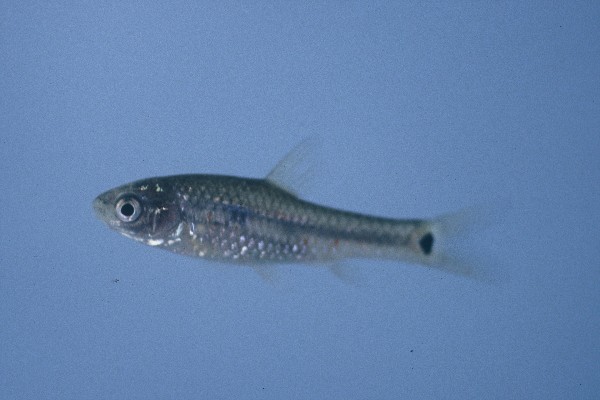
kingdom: Animalia
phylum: Chordata
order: Cypriniformes
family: Cyprinidae
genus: Enteromius
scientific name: Enteromius brevidorsalis
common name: Dwarf barb
